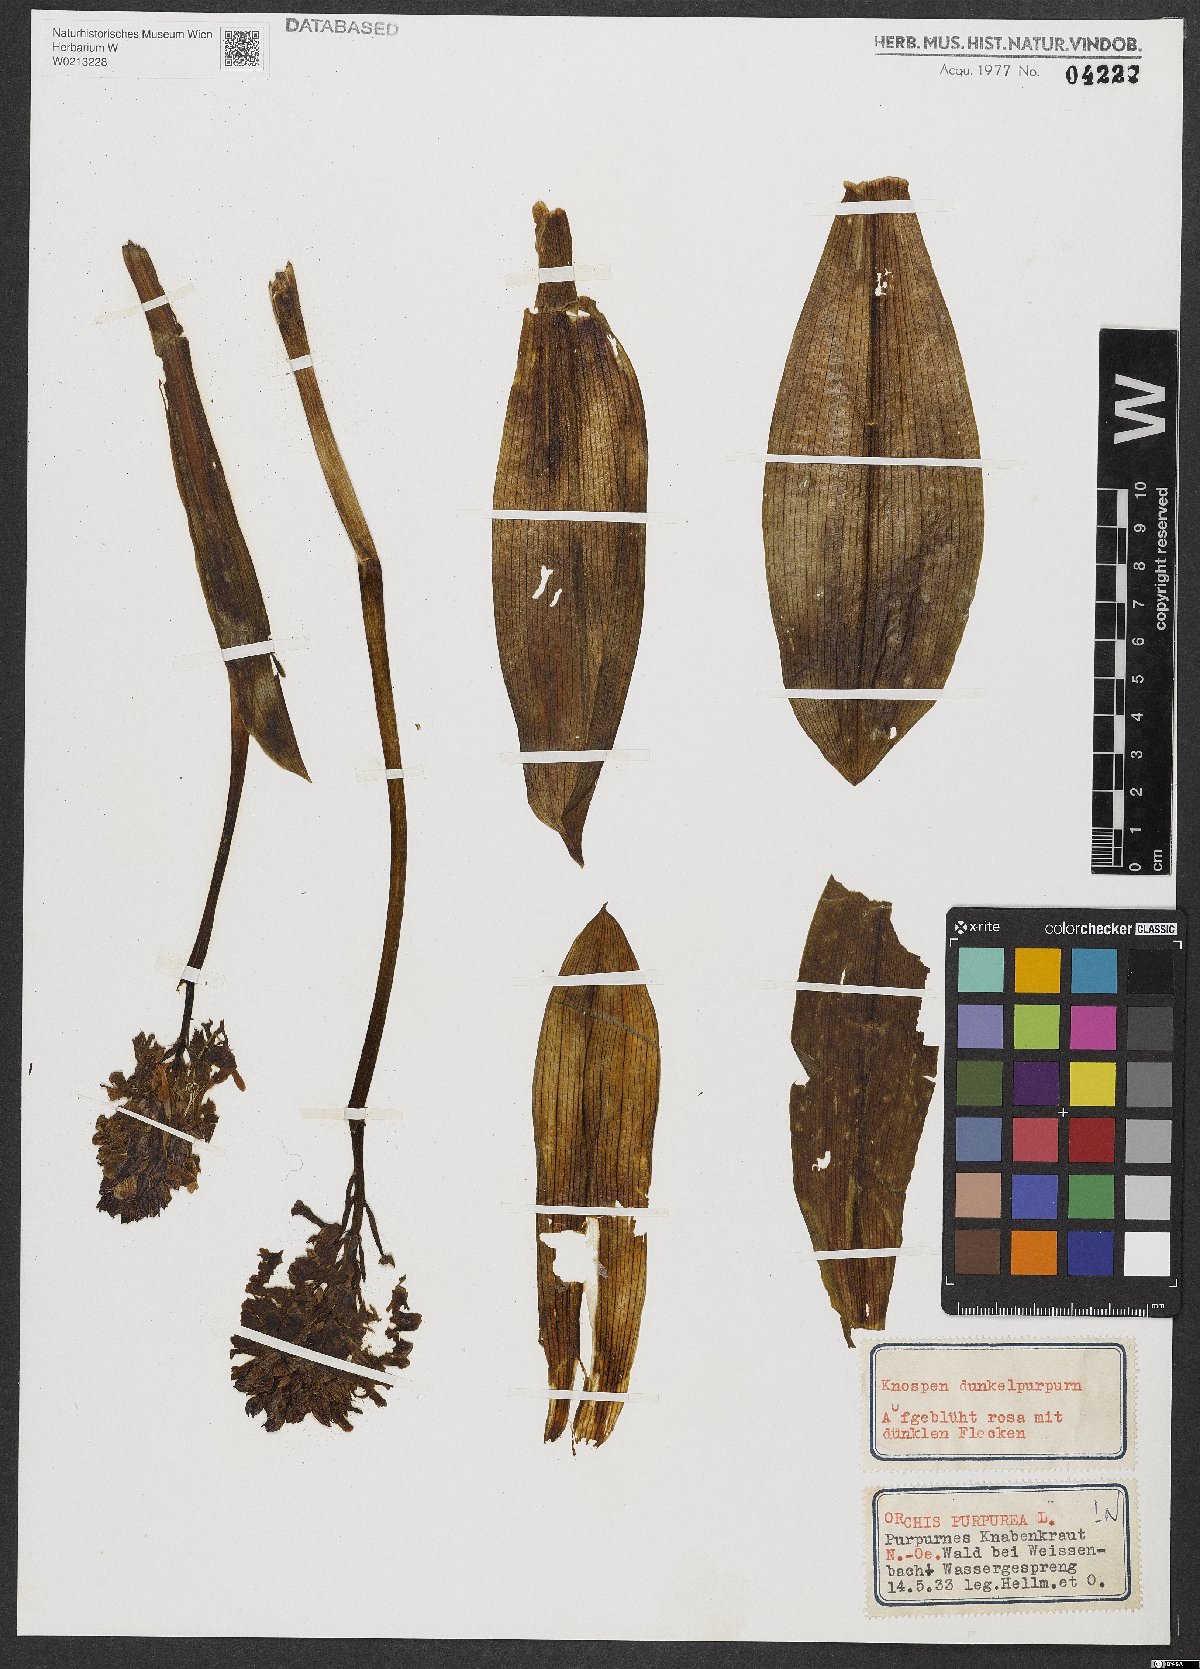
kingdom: Plantae
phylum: Tracheophyta
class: Liliopsida
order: Asparagales
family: Orchidaceae
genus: Orchis
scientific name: Orchis purpurea
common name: Lady orchid
